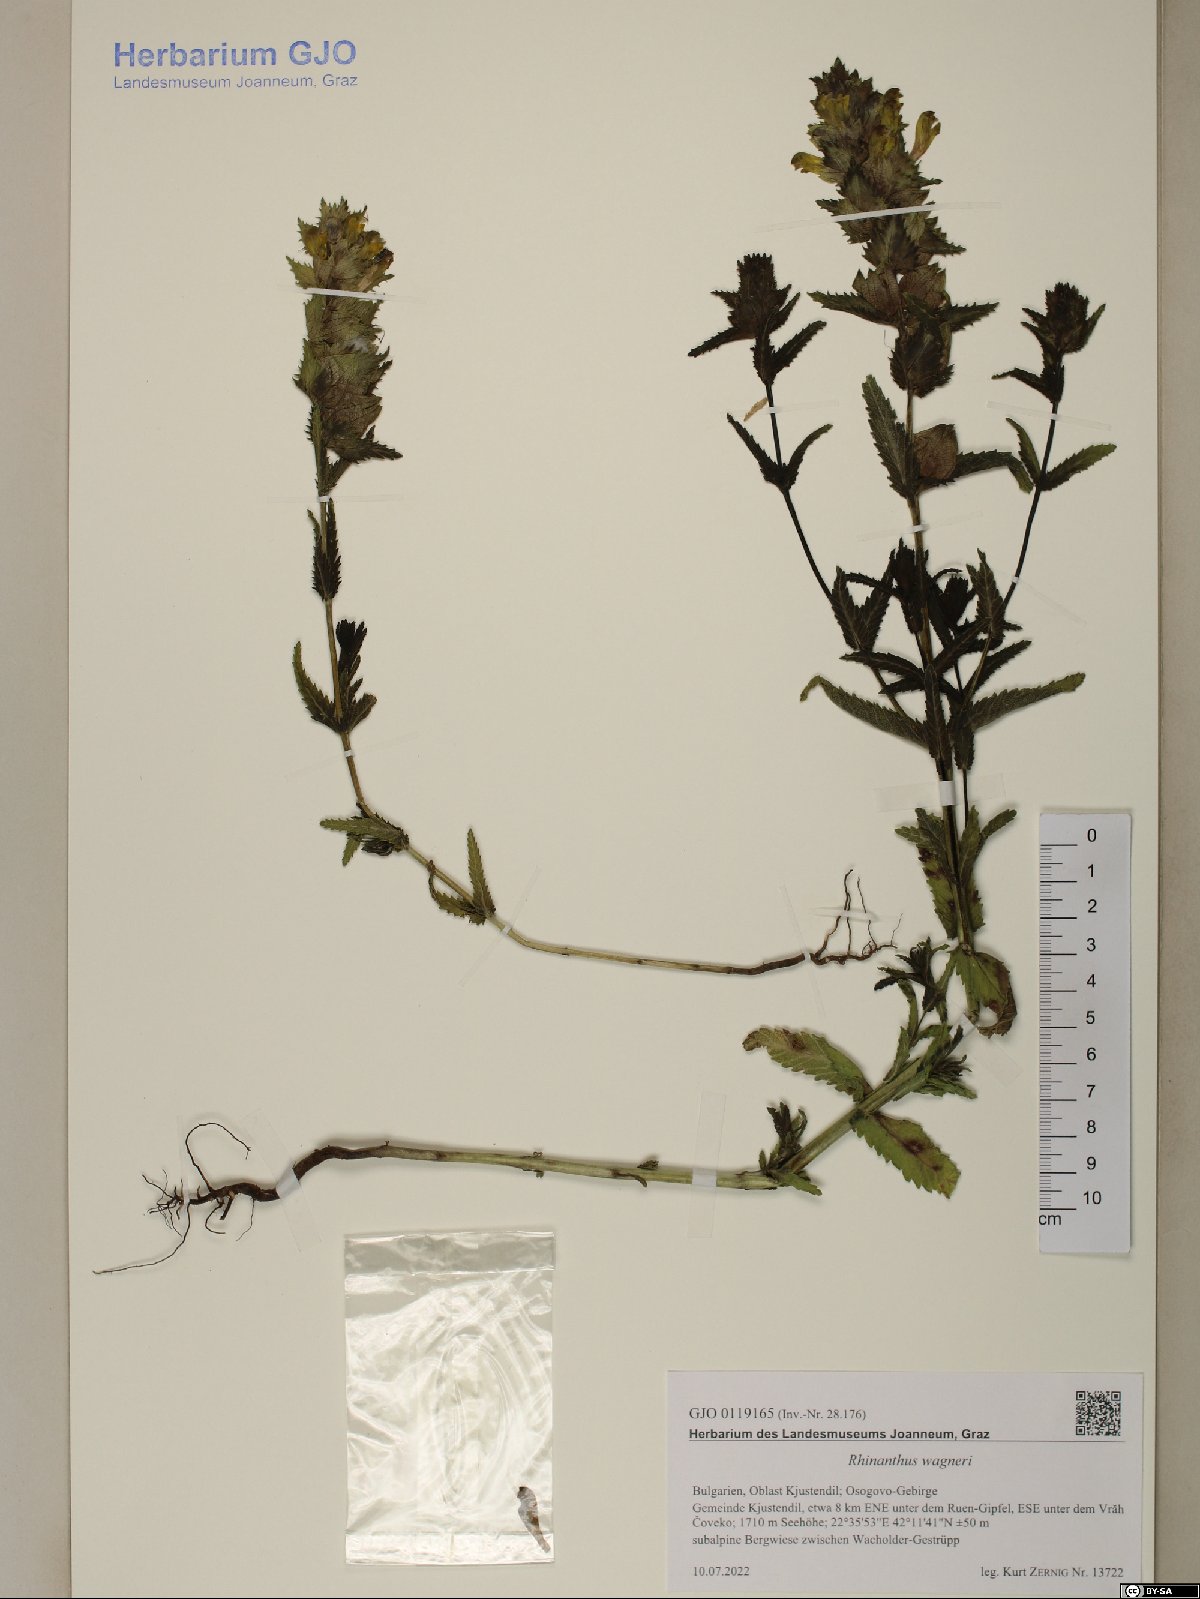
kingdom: Plantae
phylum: Tracheophyta
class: Magnoliopsida
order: Lamiales
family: Scrophulariaceae
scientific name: Scrophulariaceae
